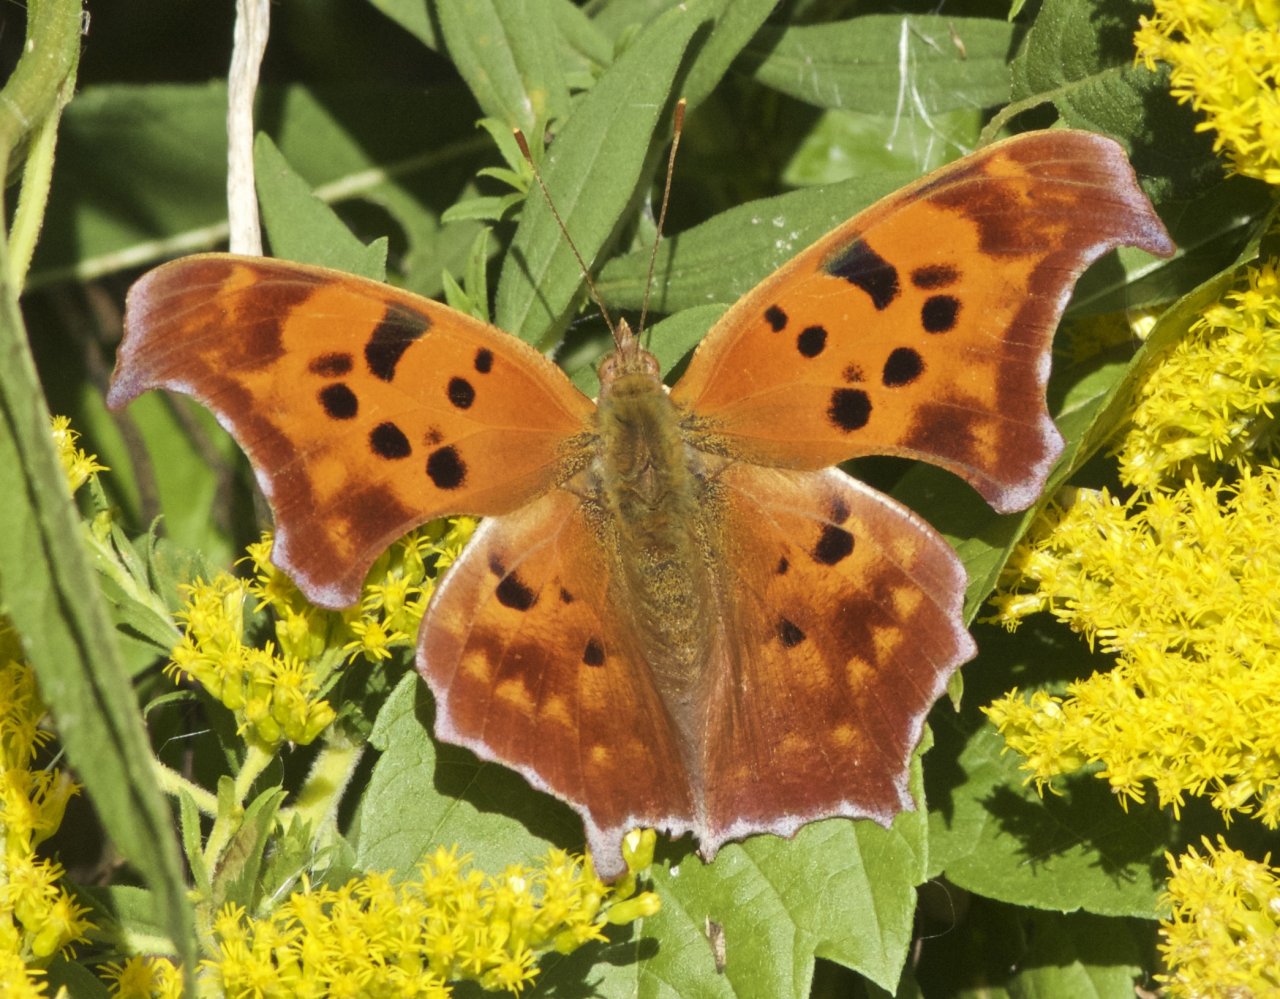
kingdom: Animalia
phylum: Arthropoda
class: Insecta
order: Lepidoptera
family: Nymphalidae
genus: Polygonia
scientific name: Polygonia interrogationis
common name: Question Mark
